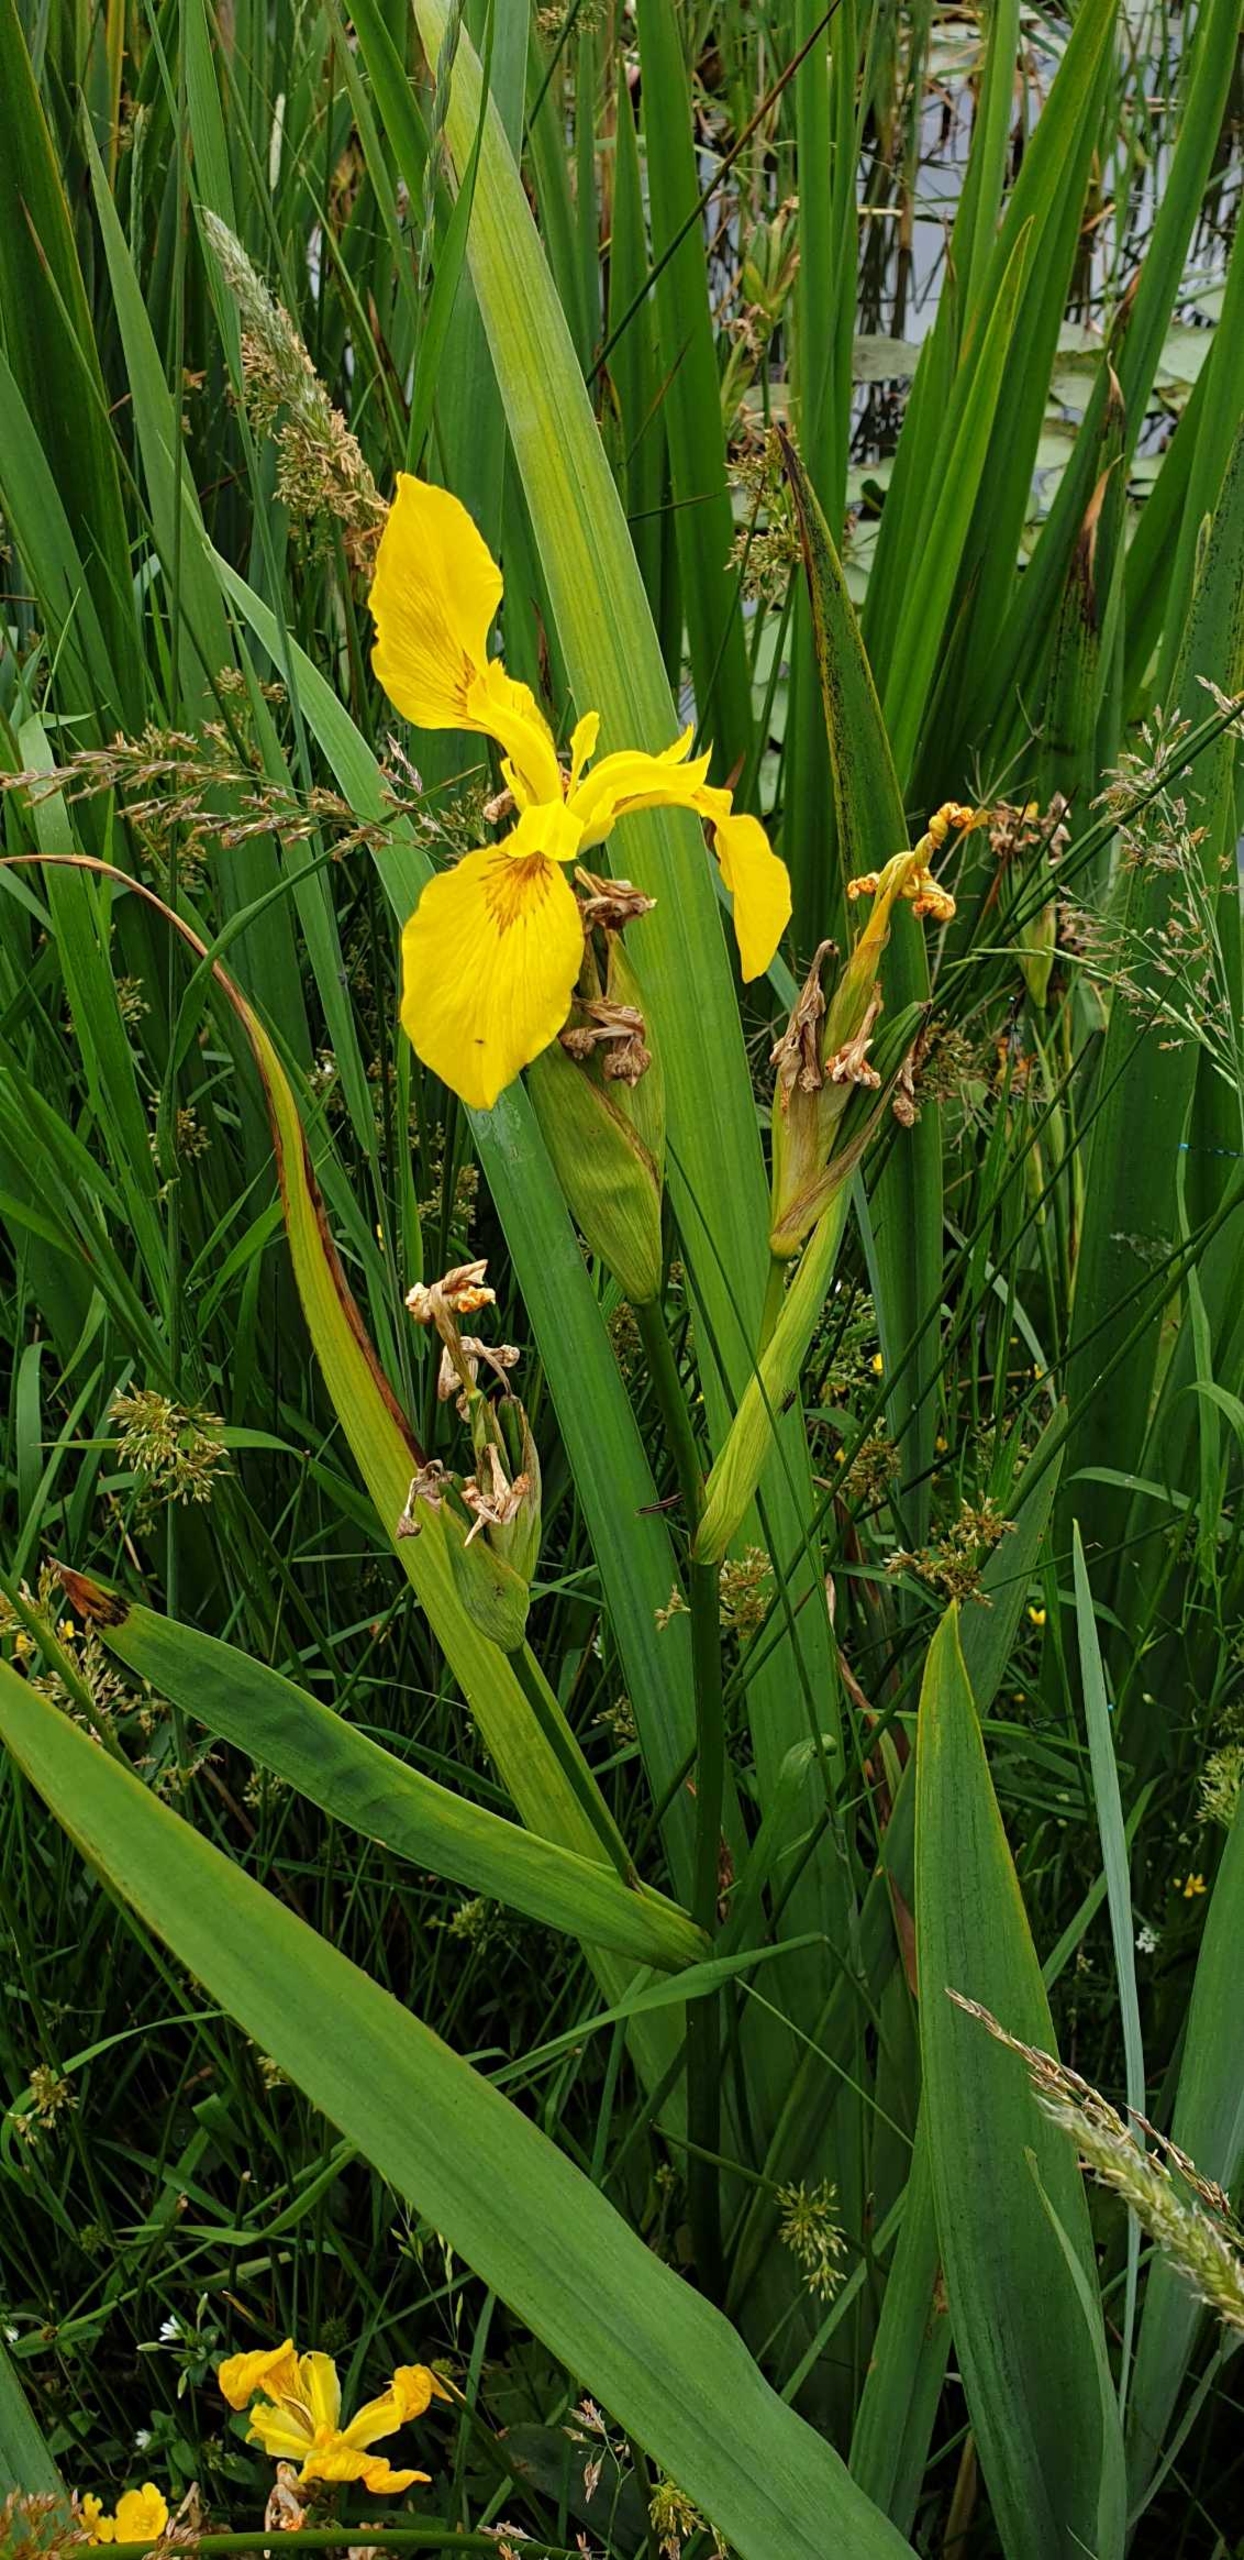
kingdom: Plantae
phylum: Tracheophyta
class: Liliopsida
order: Asparagales
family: Iridaceae
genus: Iris
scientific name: Iris pseudacorus
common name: Gul iris
